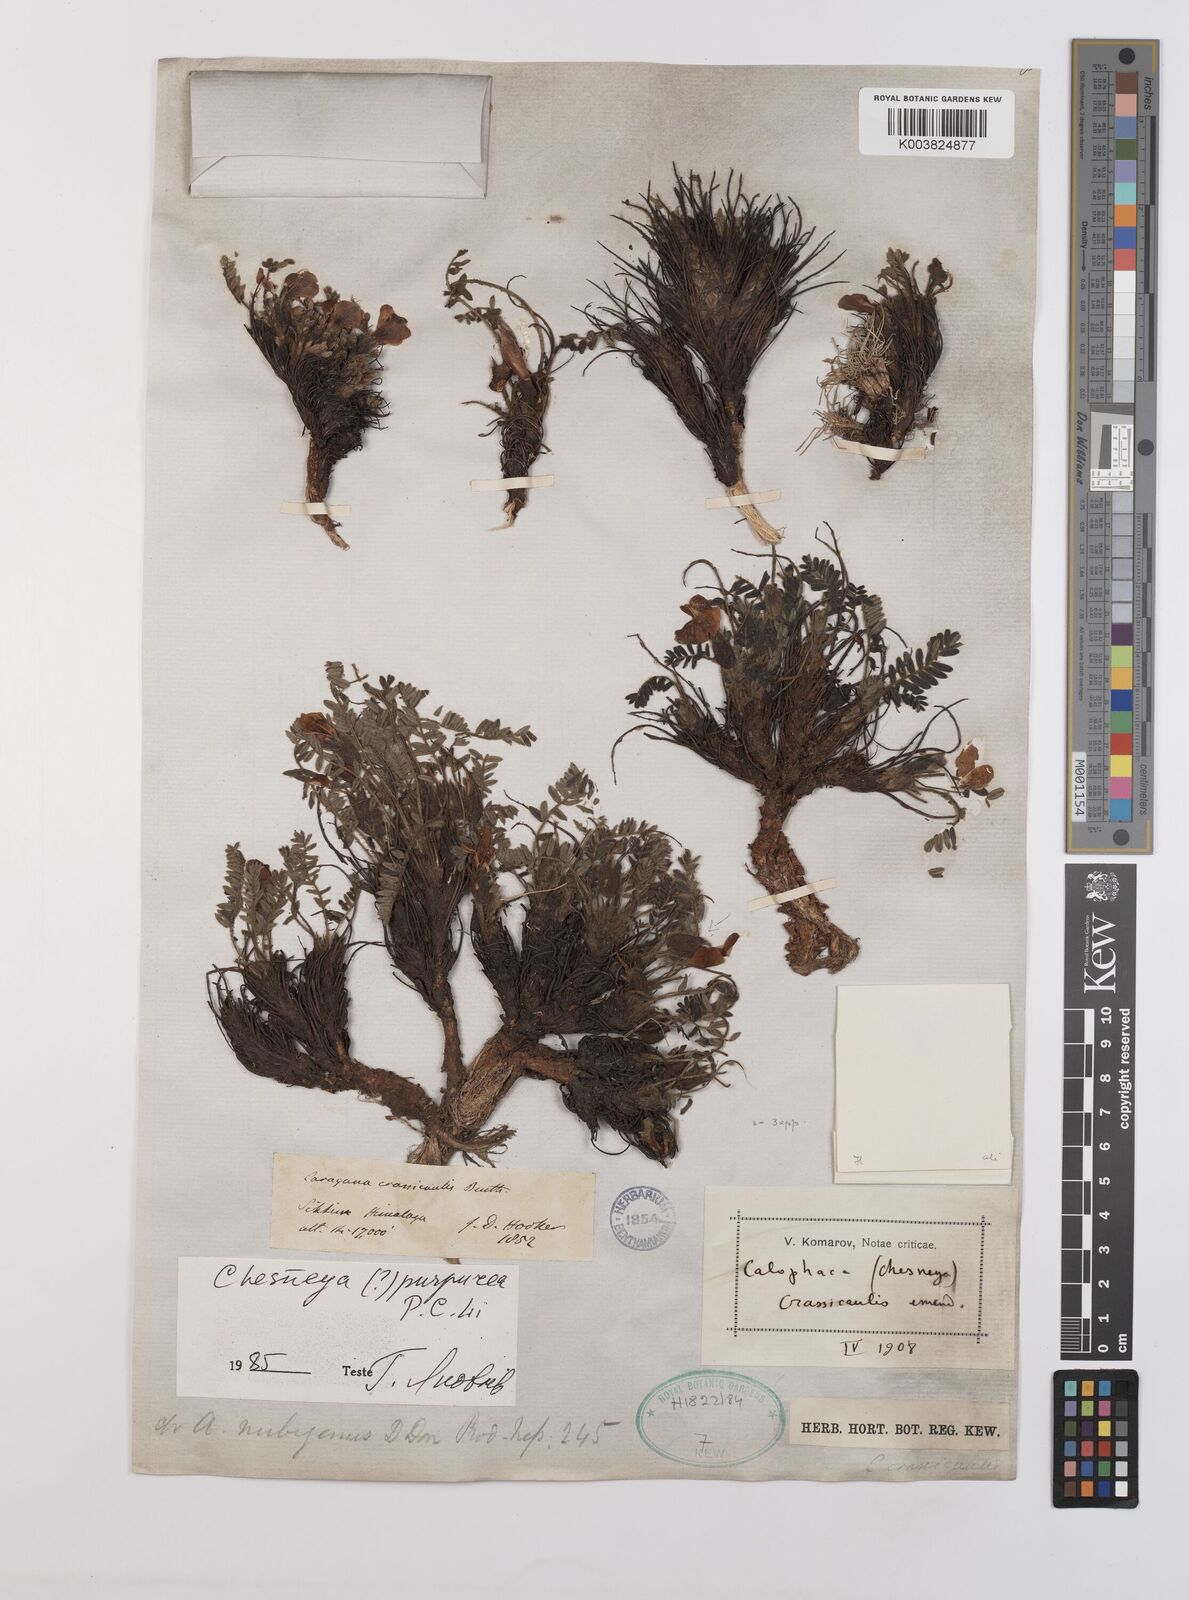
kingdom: Plantae
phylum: Tracheophyta
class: Magnoliopsida
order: Fabales
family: Fabaceae
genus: Chesneya
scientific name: Chesneya purpurea
